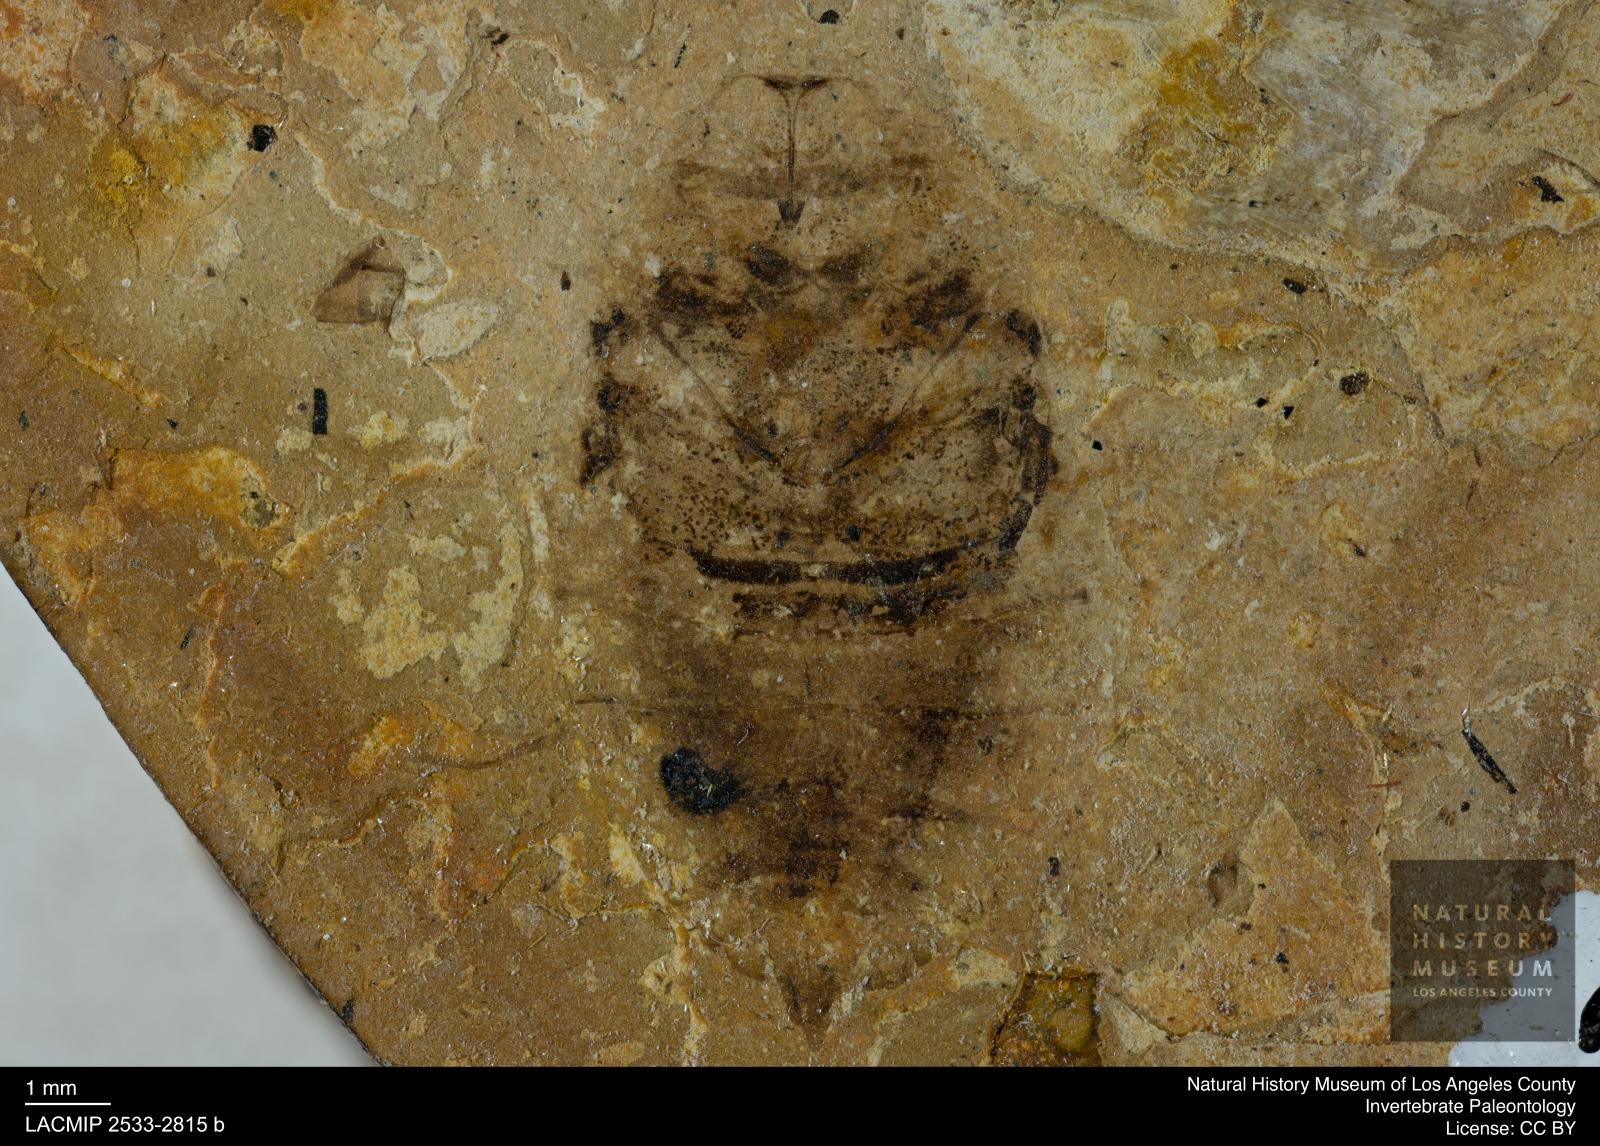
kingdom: Animalia
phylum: Arthropoda
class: Insecta
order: Hemiptera
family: Naucoridae
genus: Naucoris
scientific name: Naucoris rottensis
